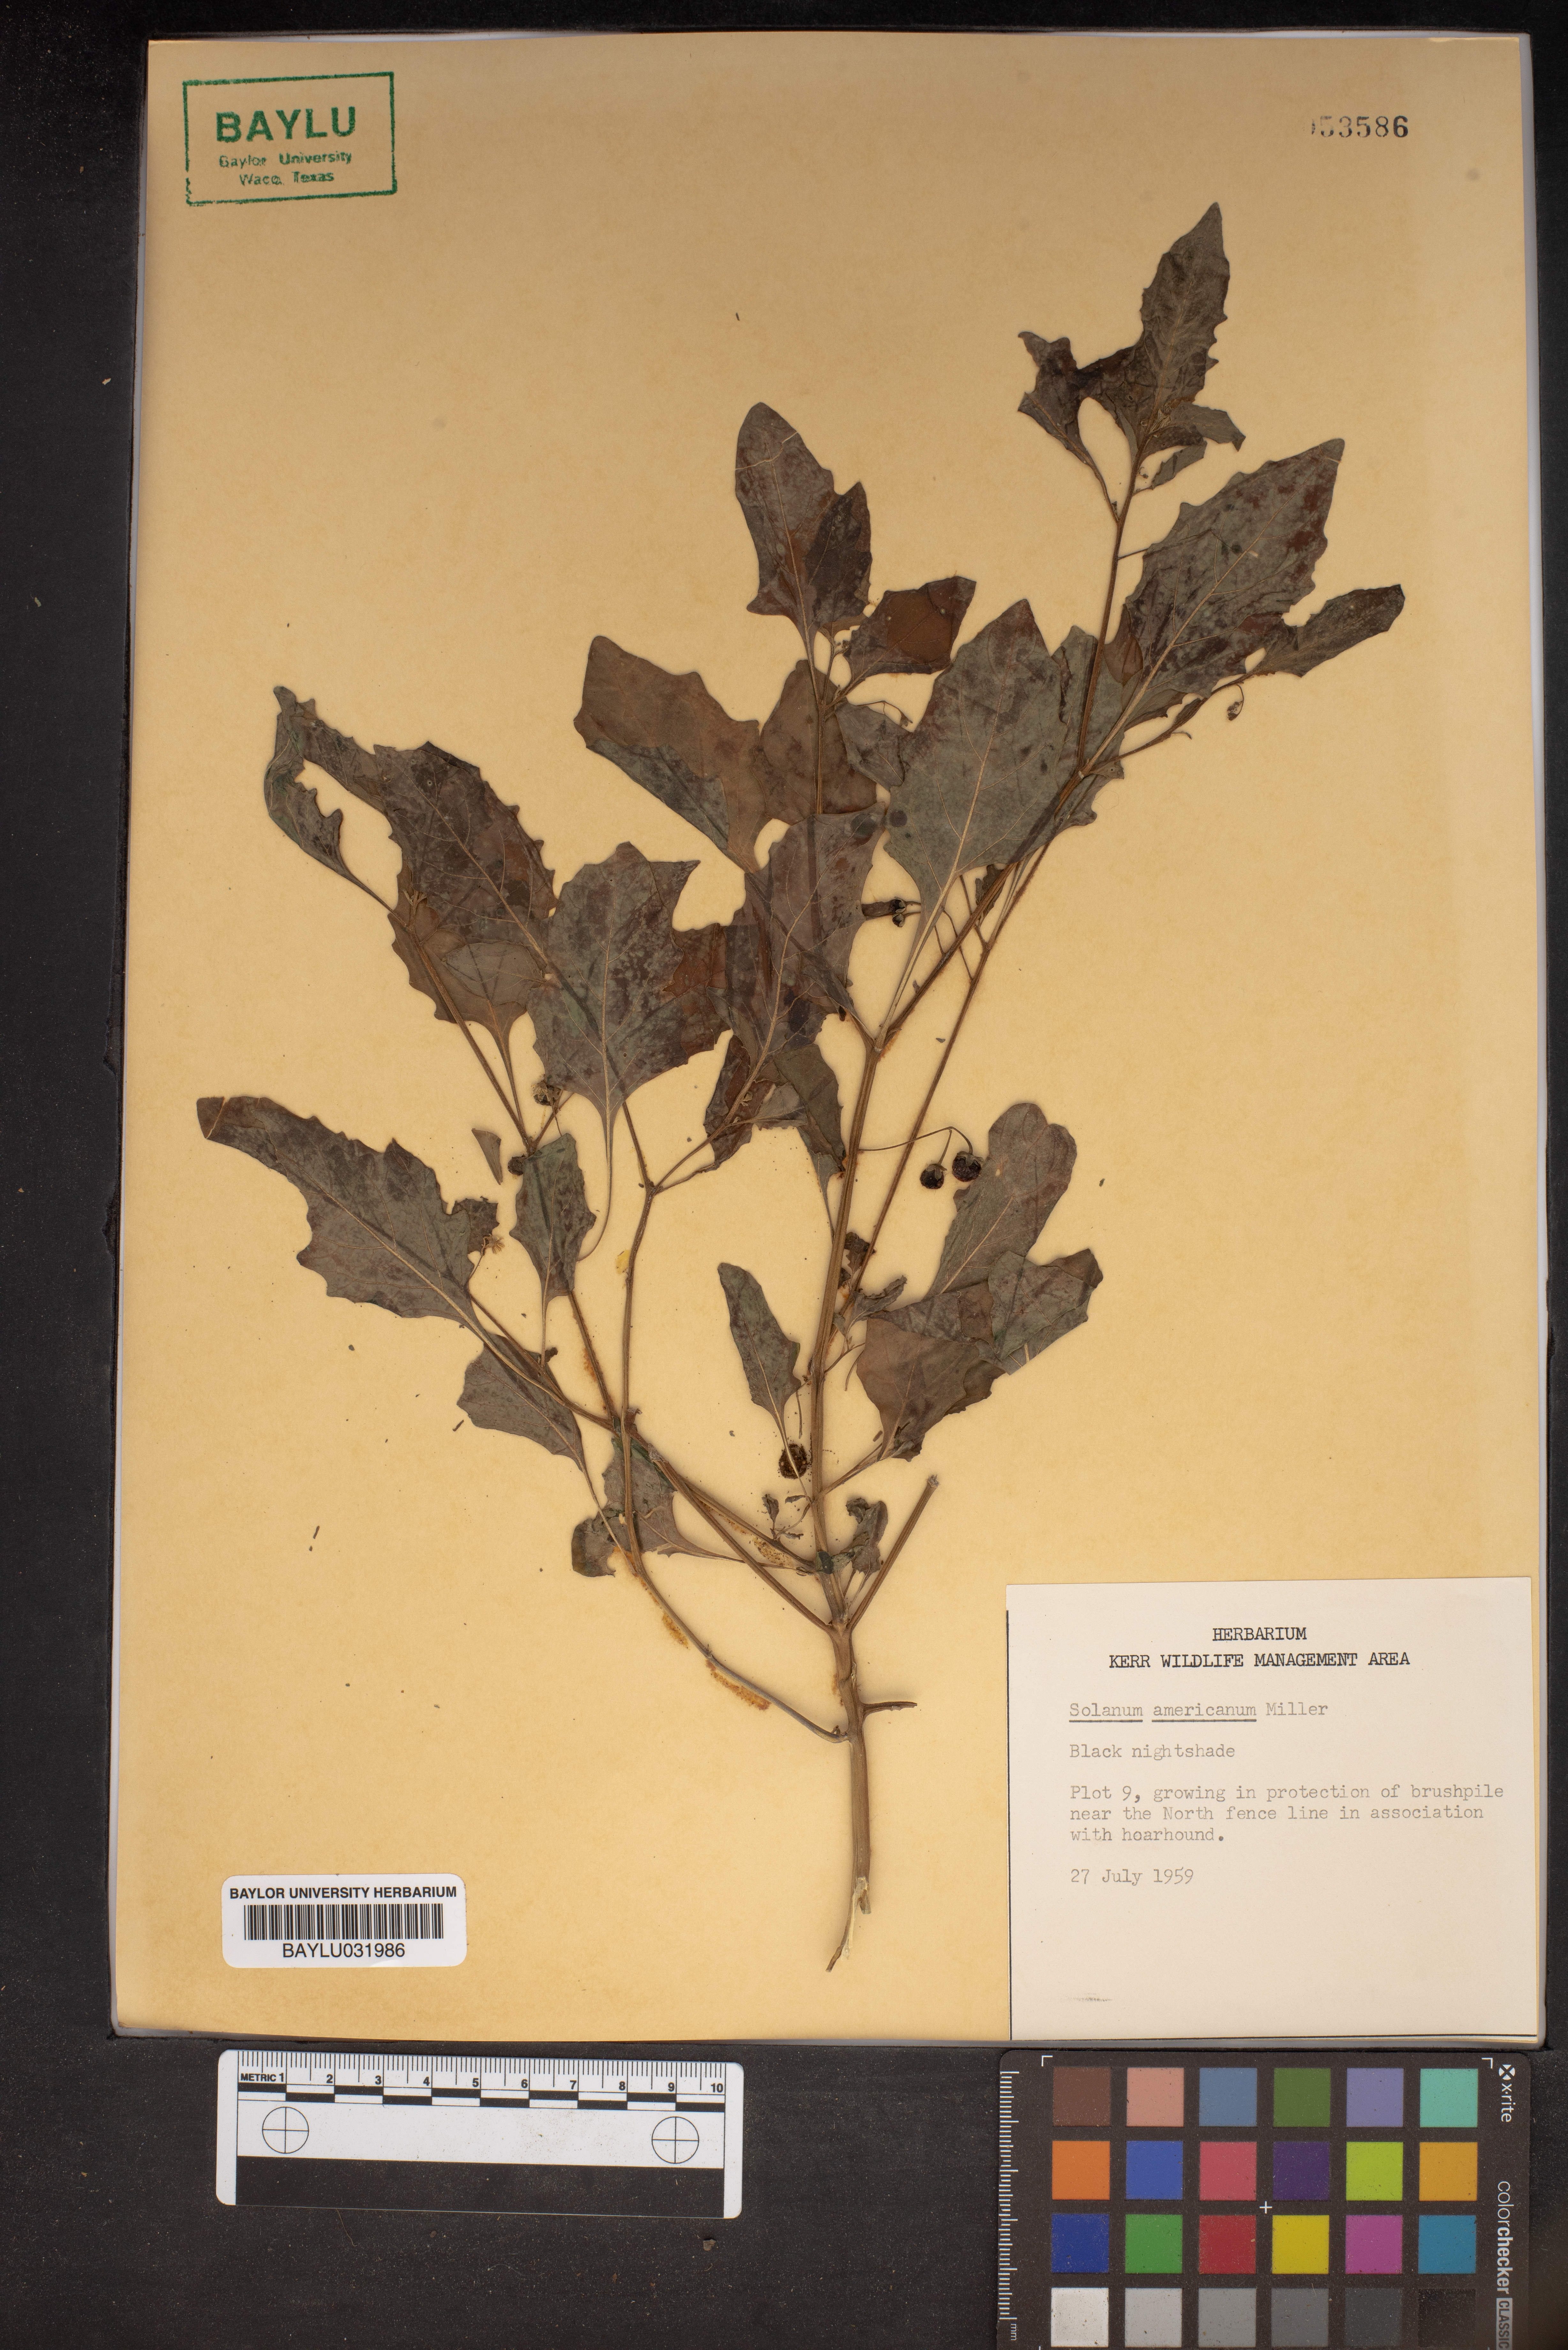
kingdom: Plantae
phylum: Tracheophyta
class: Magnoliopsida
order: Solanales
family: Solanaceae
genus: Solanum
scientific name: Solanum americanum
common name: American black nightshade
